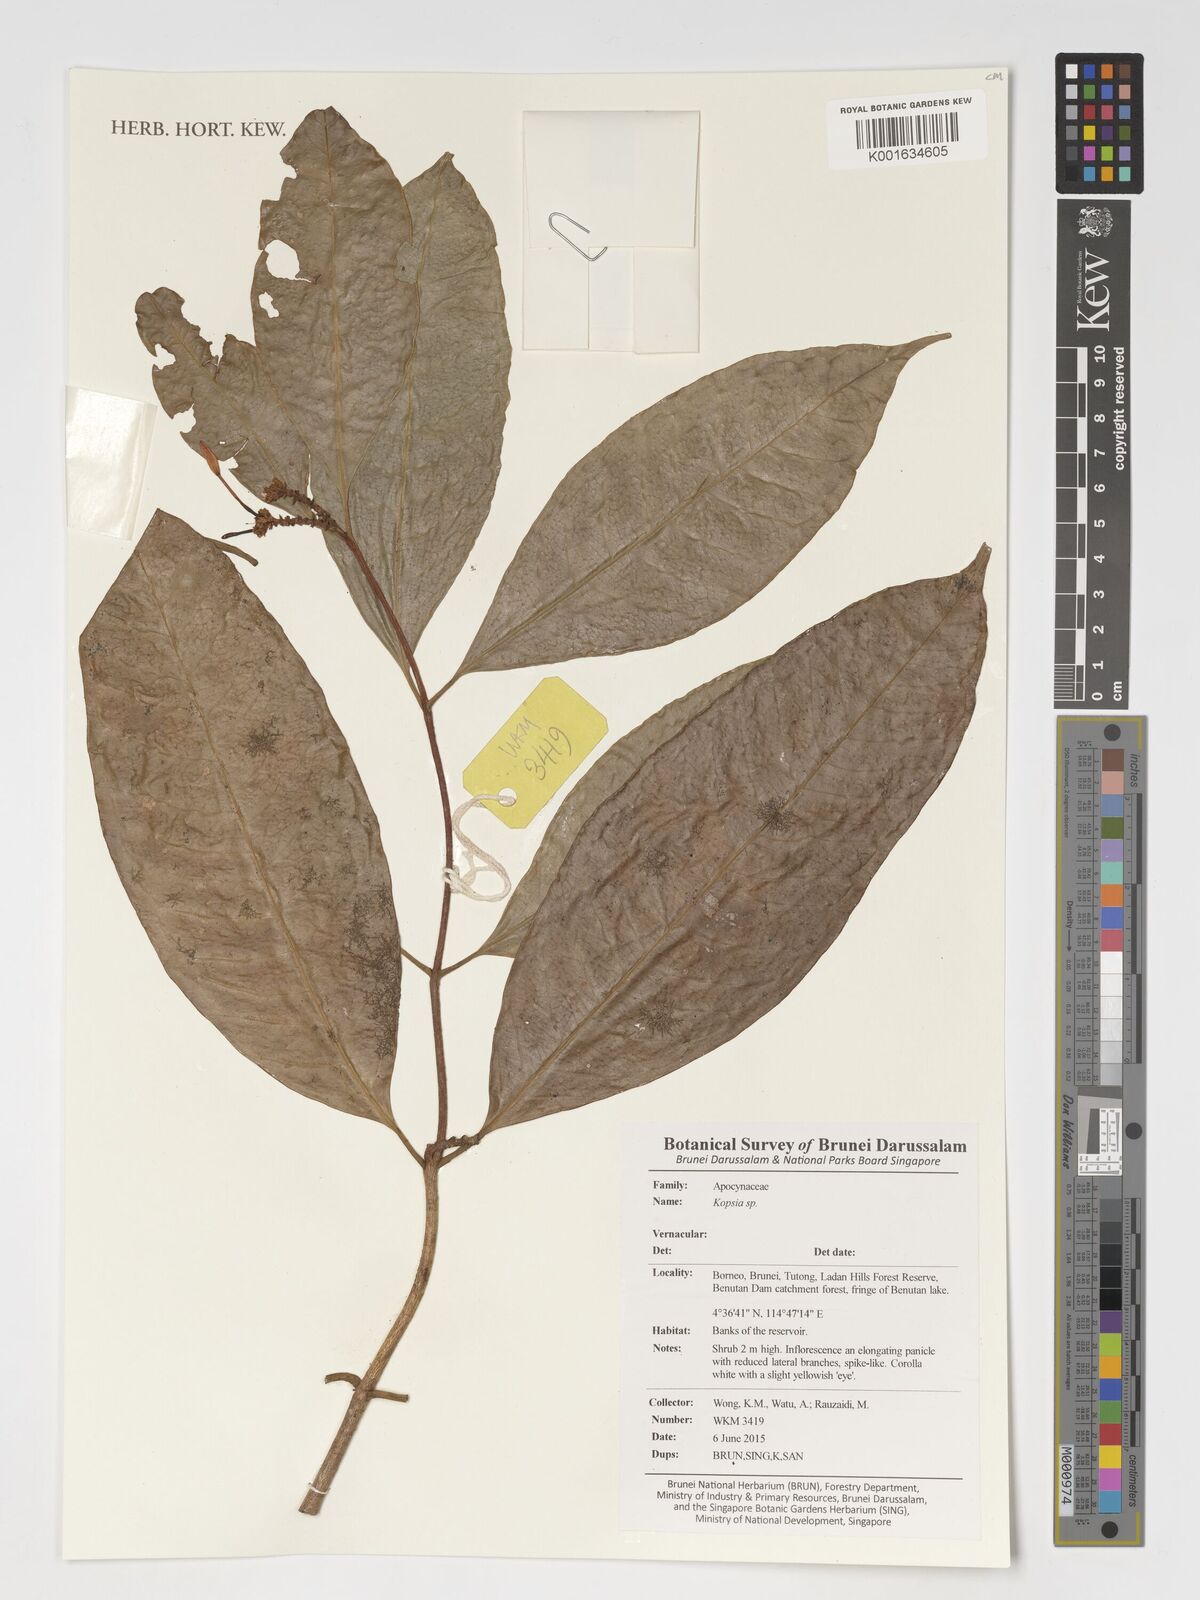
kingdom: Plantae
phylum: Tracheophyta
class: Magnoliopsida
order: Gentianales
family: Apocynaceae
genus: Kopsia
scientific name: Kopsia
